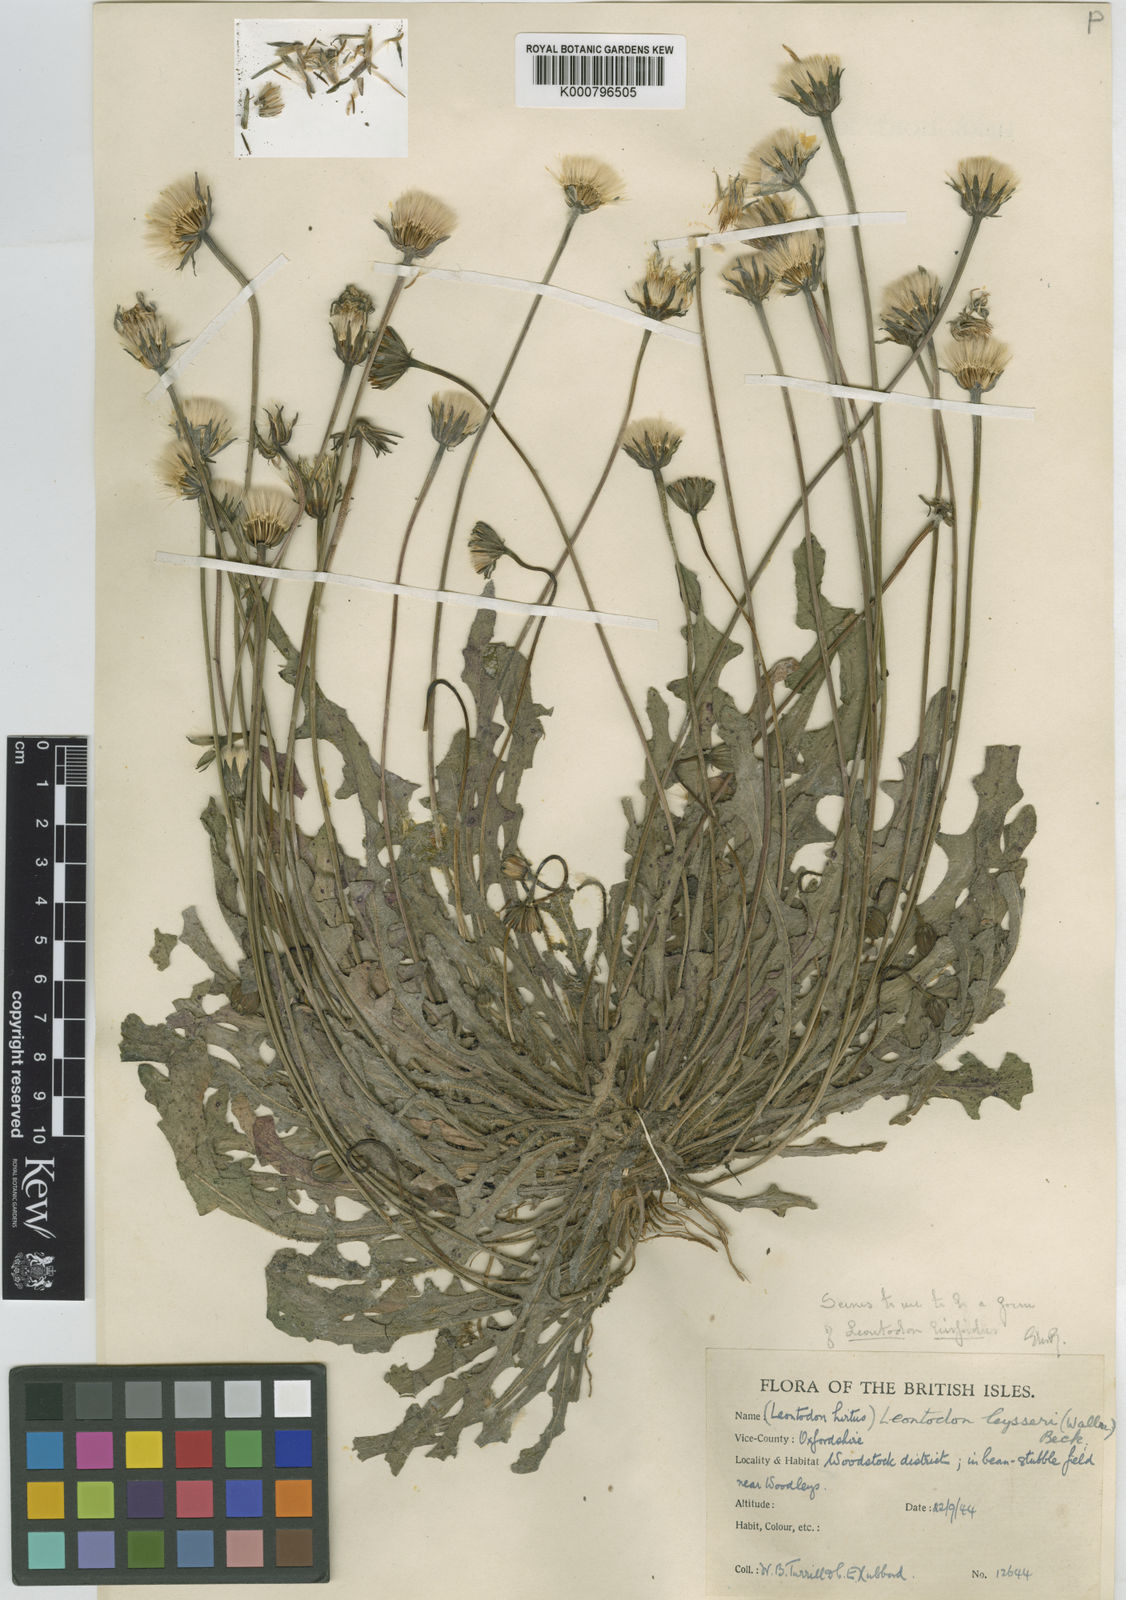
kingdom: Plantae
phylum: Tracheophyta
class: Magnoliopsida
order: Asterales
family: Asteraceae
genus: Leontodon
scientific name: Leontodon
